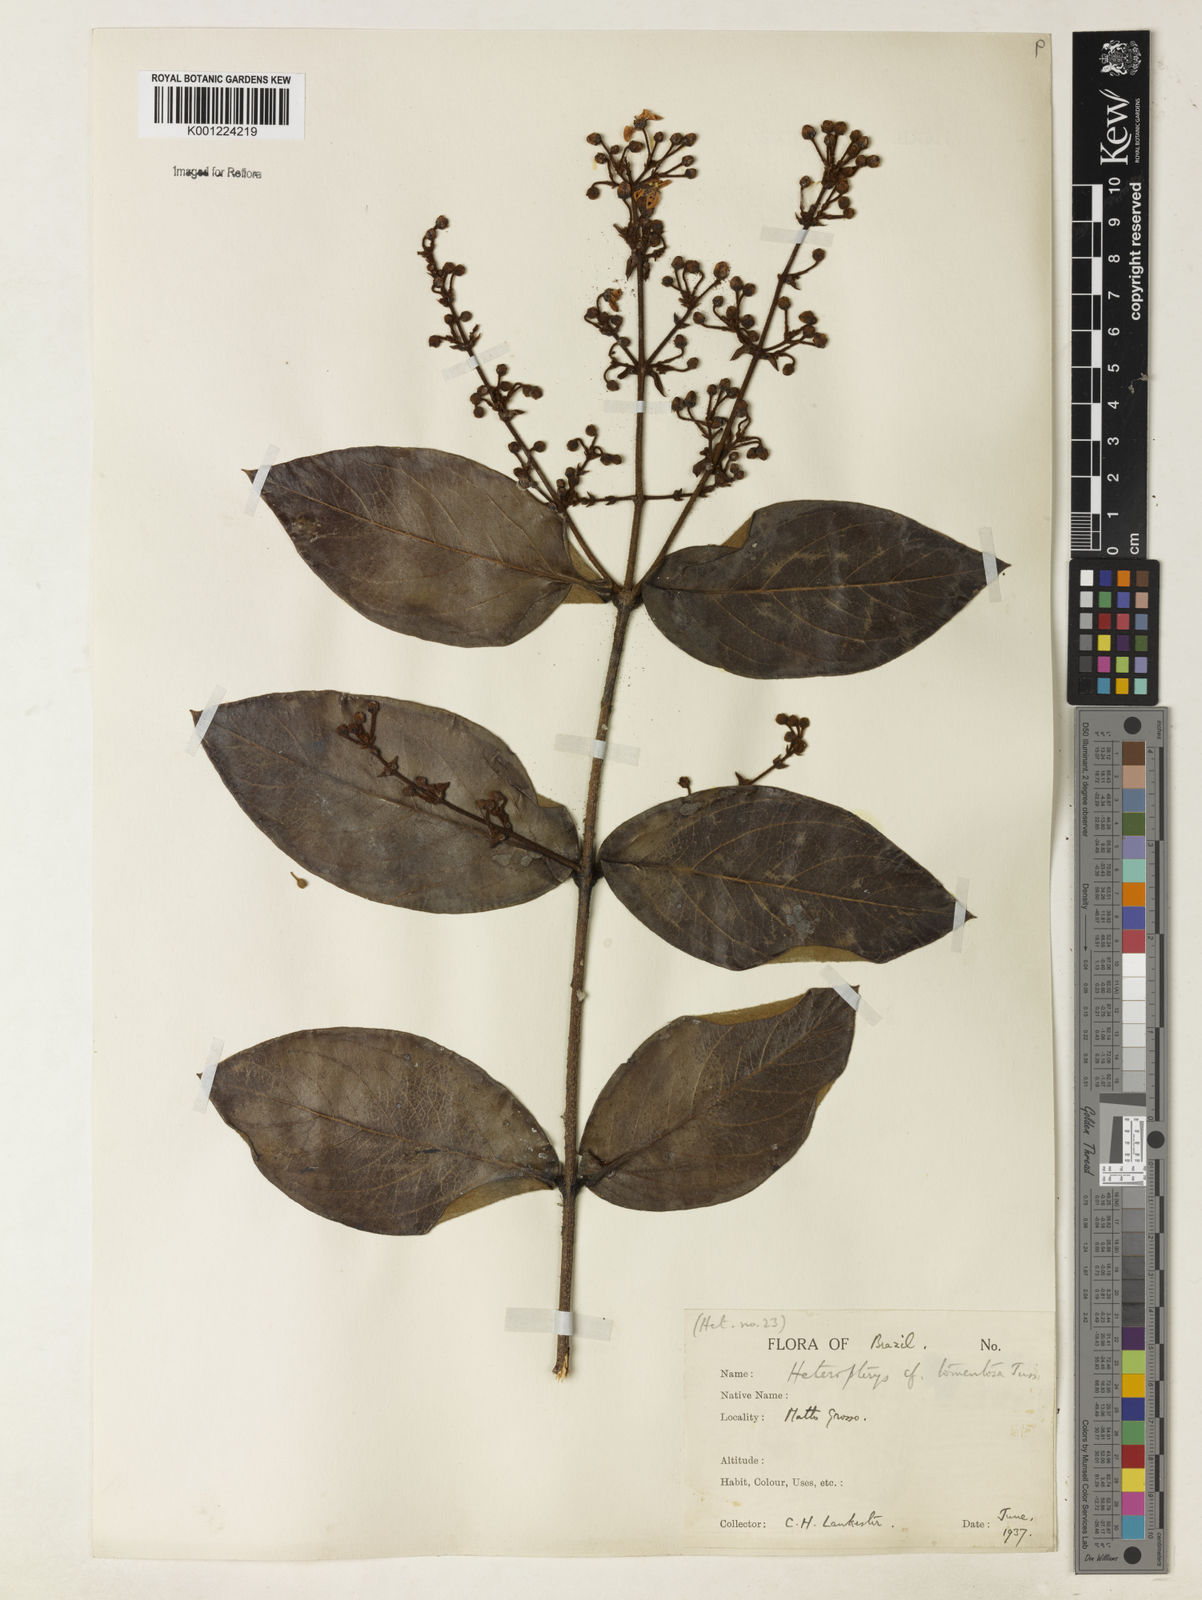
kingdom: Plantae
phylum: Tracheophyta
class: Magnoliopsida
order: Malpighiales
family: Malpighiaceae
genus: Heteropterys
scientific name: Heteropterys tomentosa
